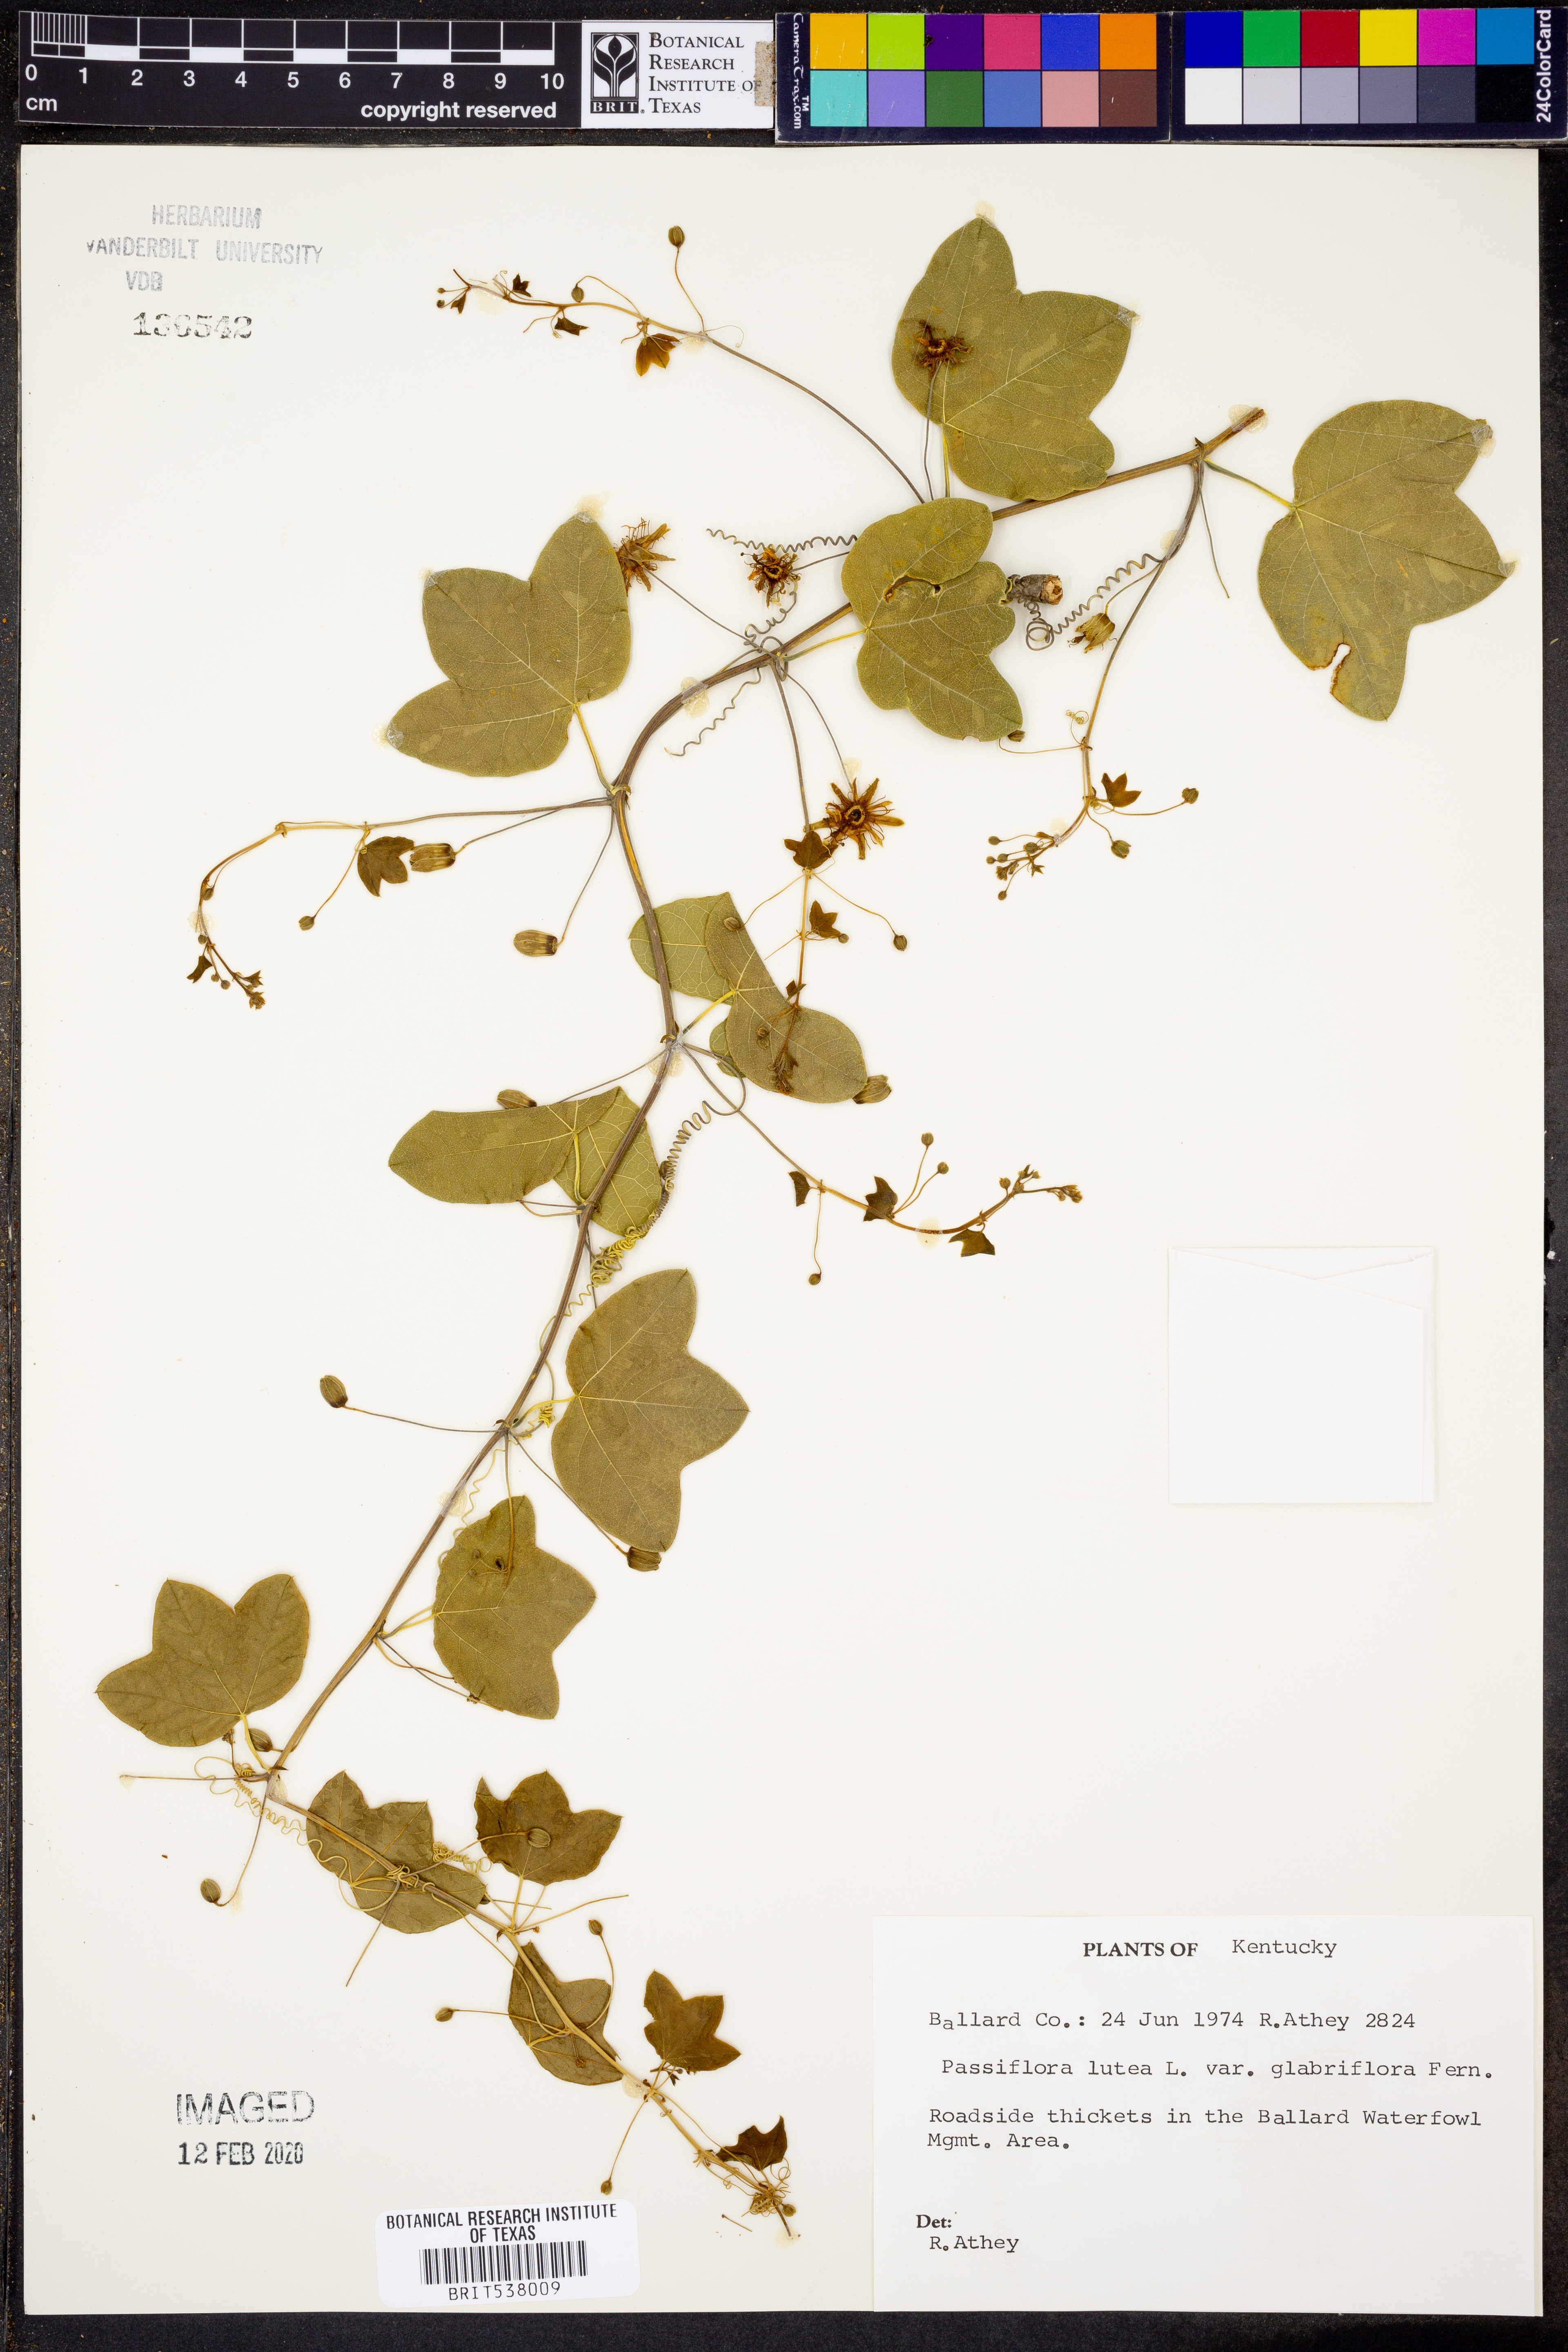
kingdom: Plantae
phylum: Tracheophyta
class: Magnoliopsida
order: Malpighiales
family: Passifloraceae
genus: Passiflora
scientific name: Passiflora lutea
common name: Yellow passionflower
